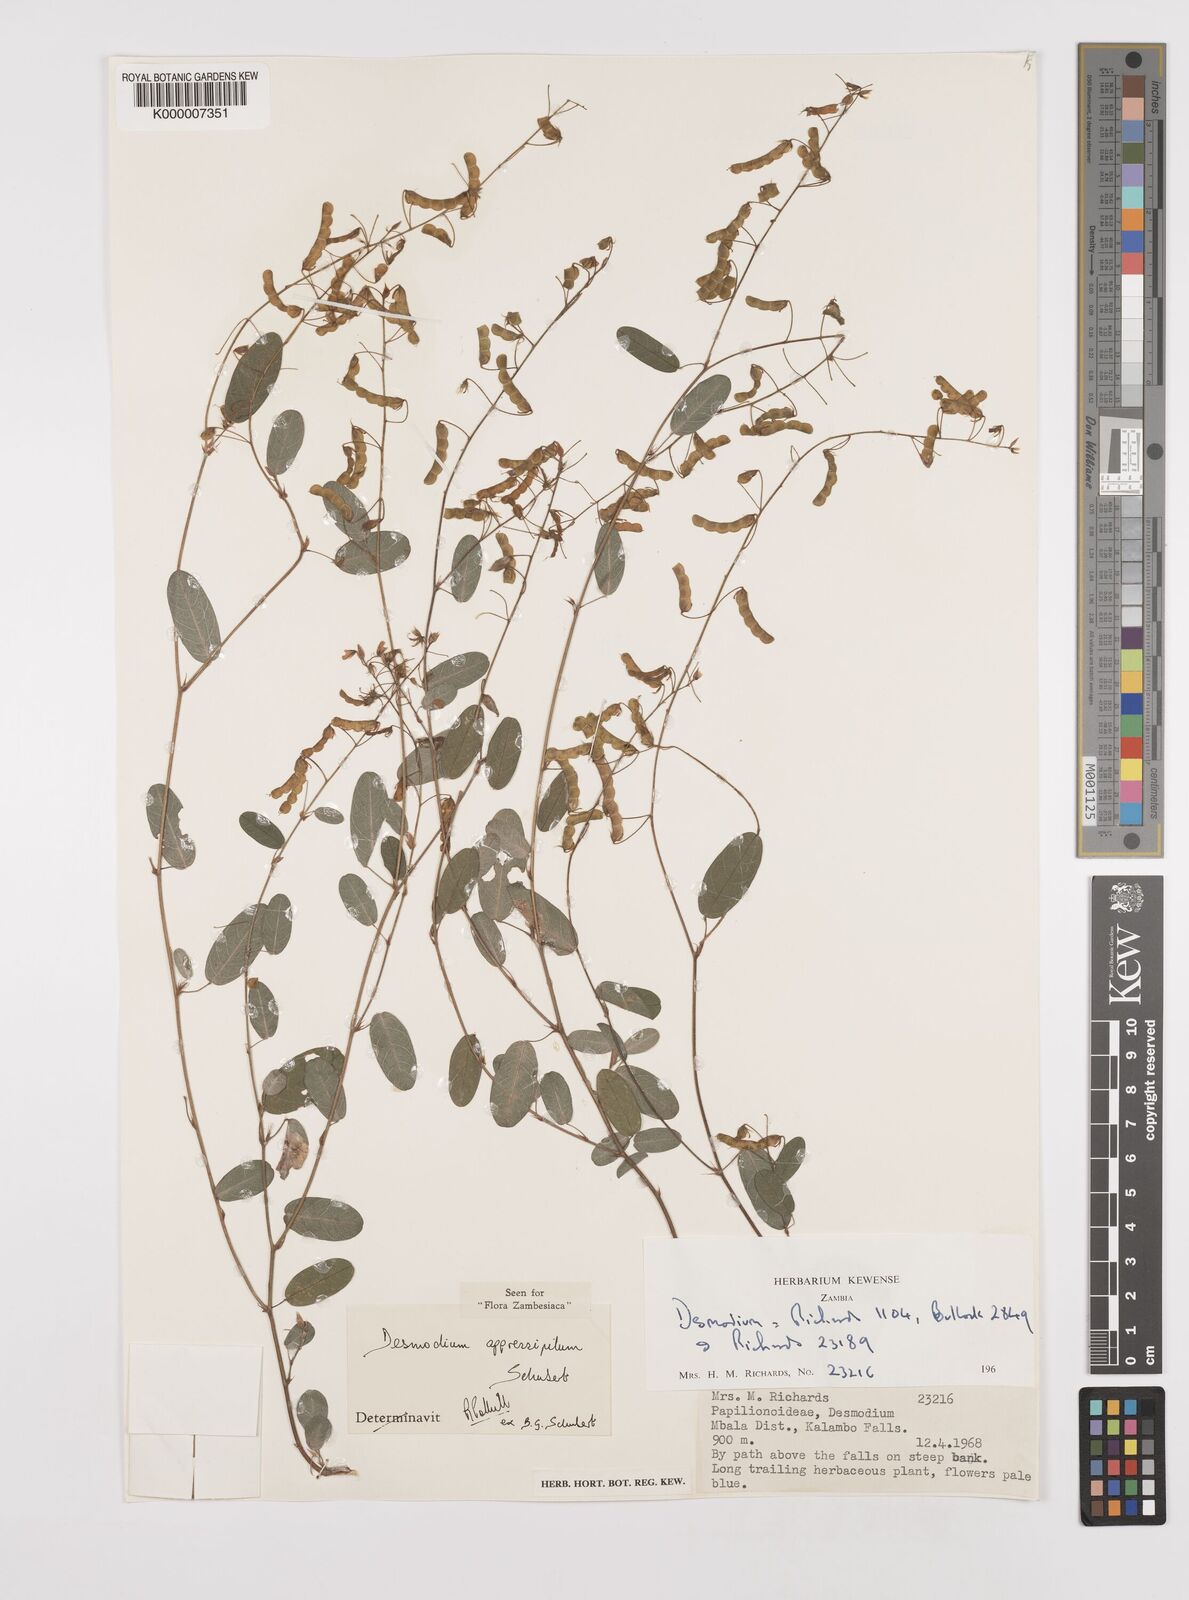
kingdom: Plantae
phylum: Tracheophyta
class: Magnoliopsida
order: Fabales
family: Fabaceae
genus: Grona
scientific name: Grona appressipila
